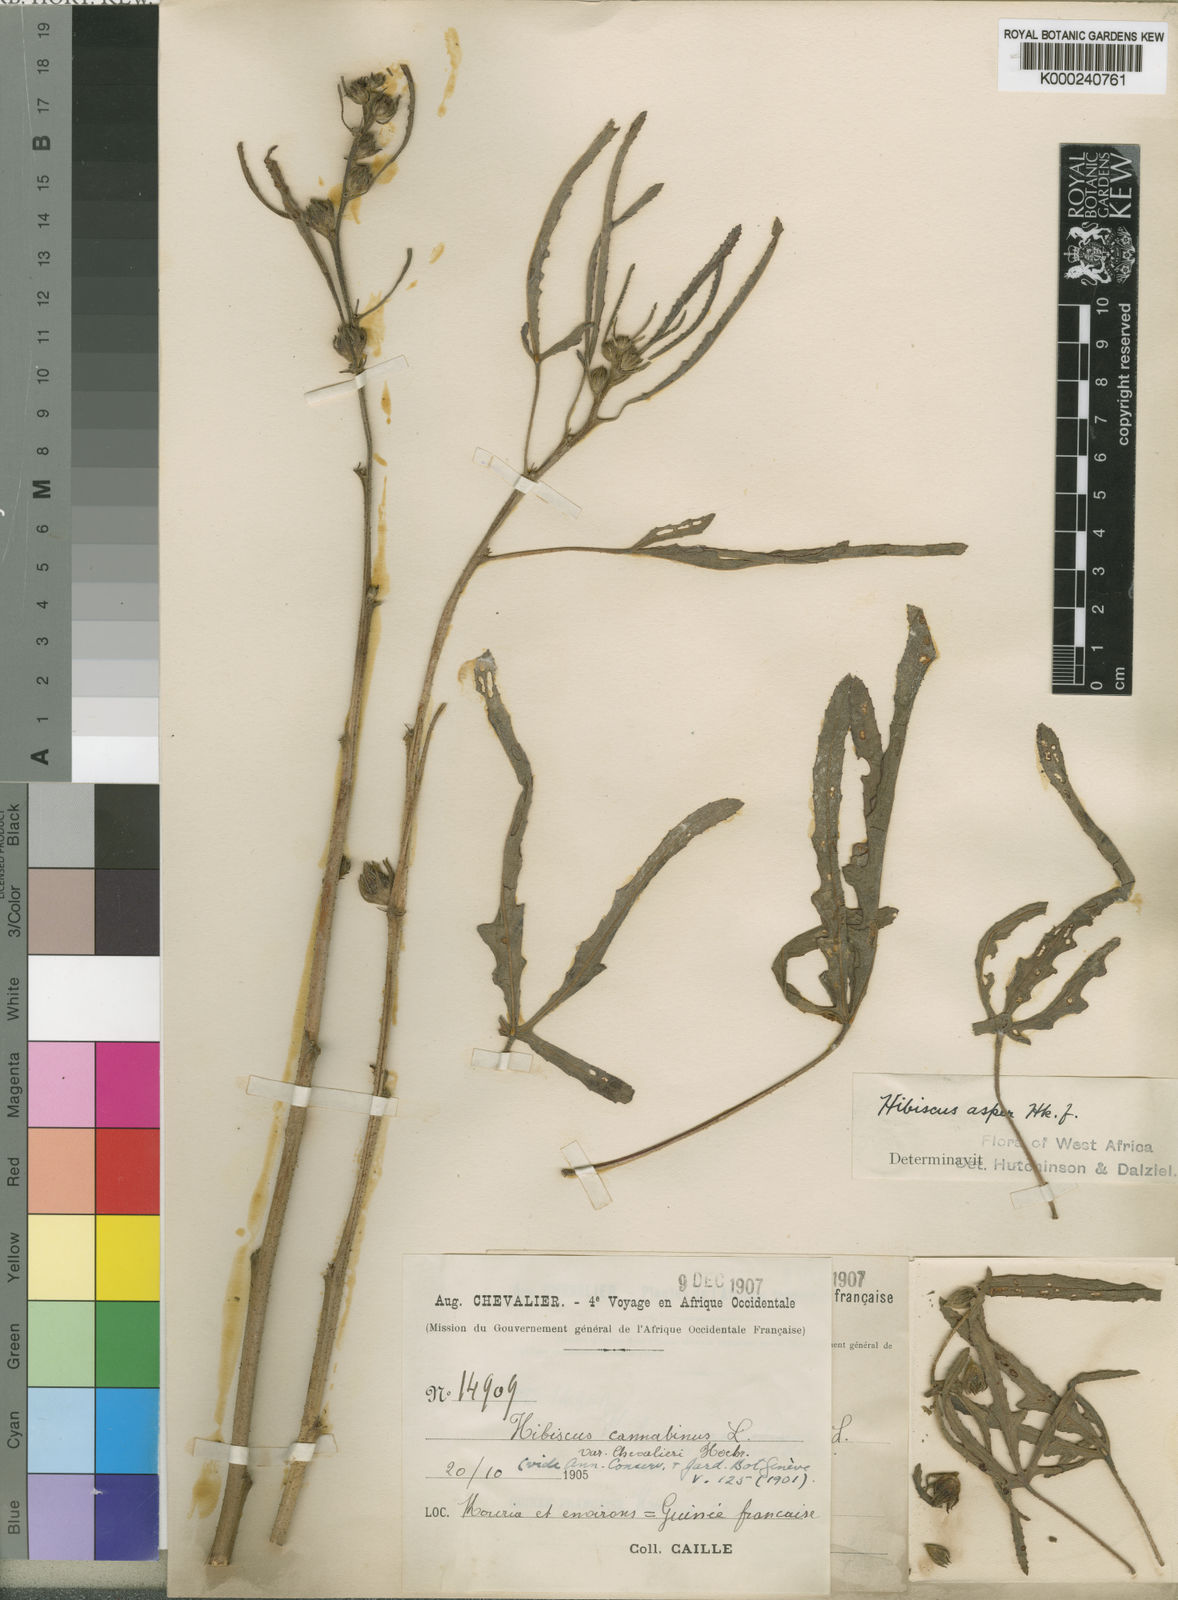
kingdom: Plantae
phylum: Tracheophyta
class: Magnoliopsida
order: Malvales
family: Malvaceae
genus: Hibiscus
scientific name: Hibiscus
